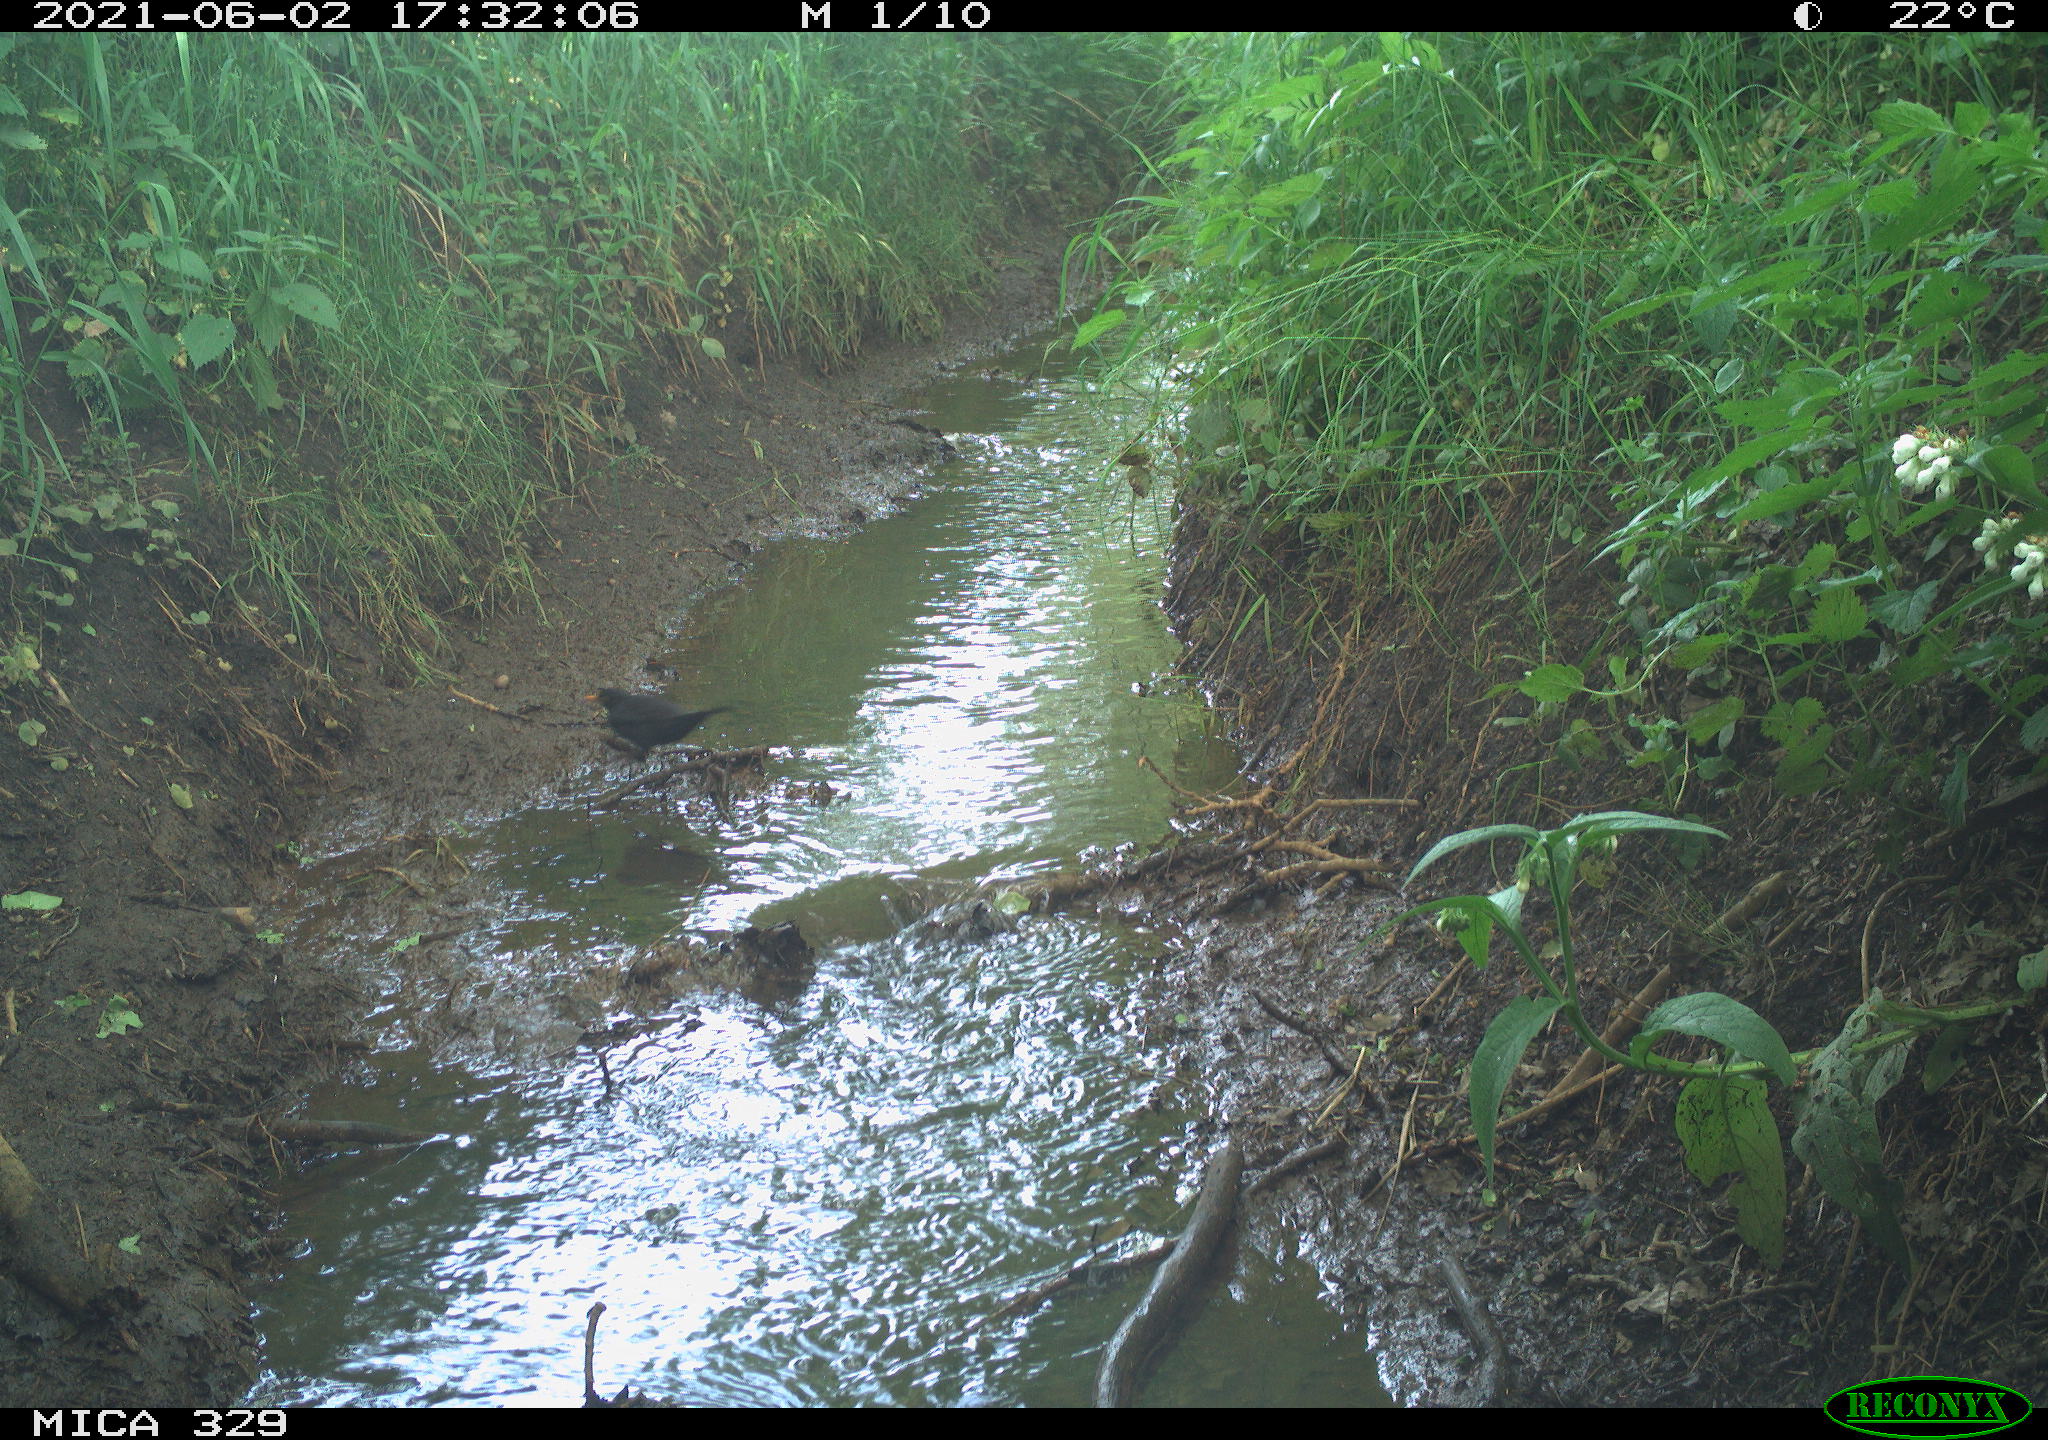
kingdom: Animalia
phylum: Chordata
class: Aves
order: Passeriformes
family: Turdidae
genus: Turdus
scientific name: Turdus merula
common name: Common blackbird
